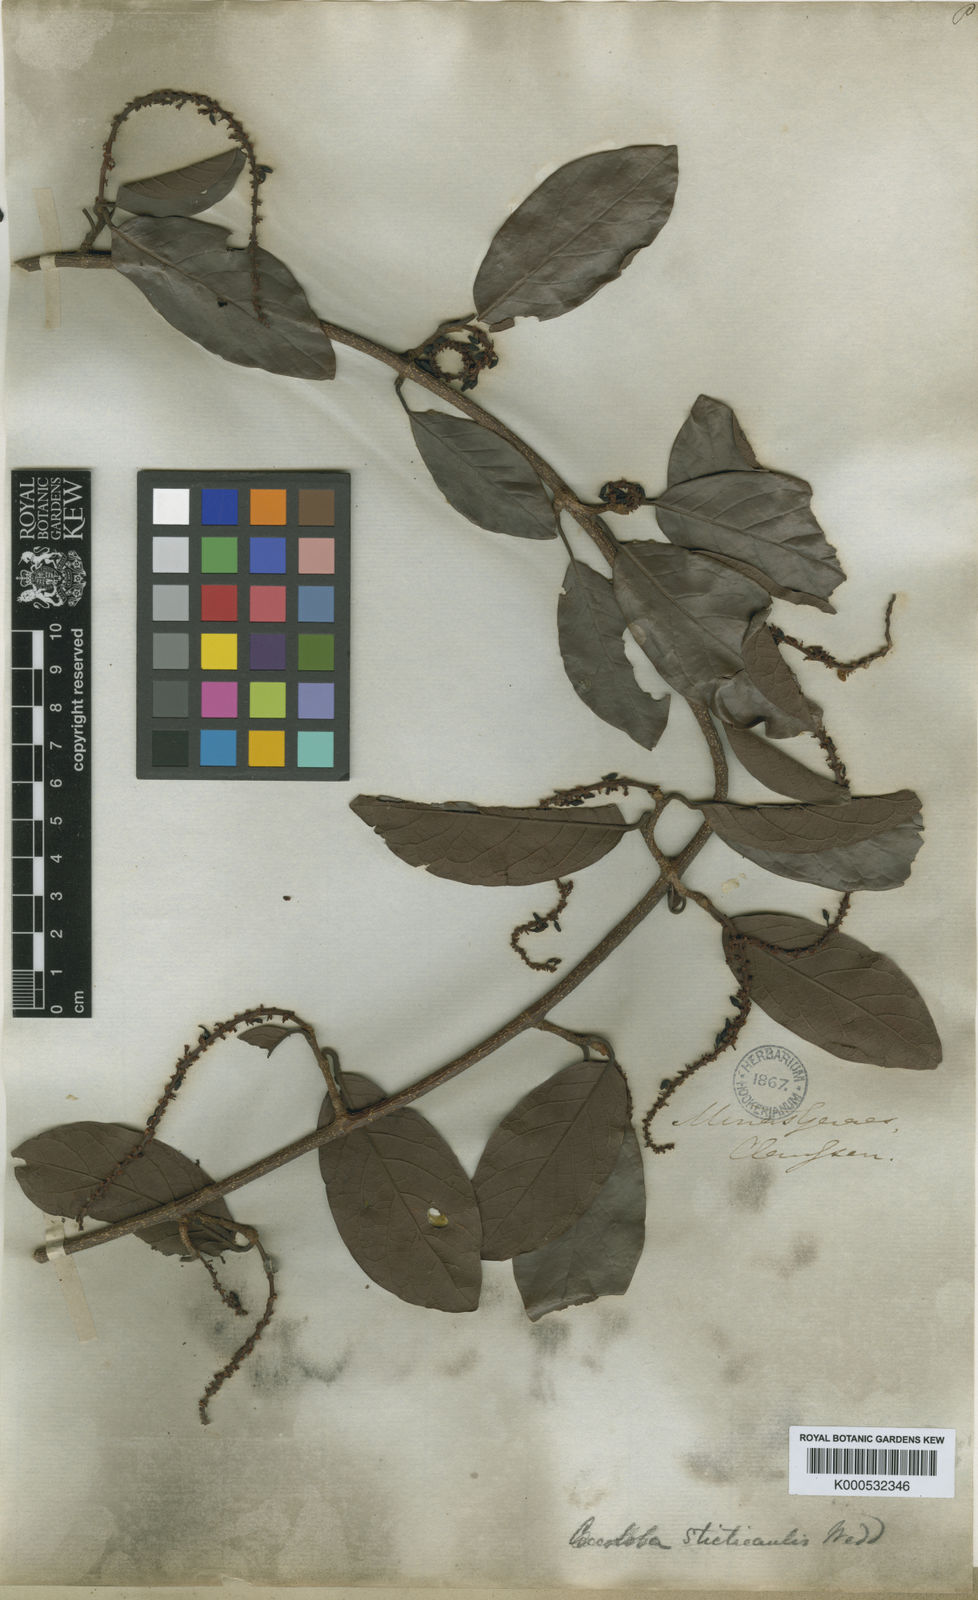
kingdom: Plantae
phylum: Tracheophyta
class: Magnoliopsida
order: Caryophyllales
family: Polygonaceae
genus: Coccoloba
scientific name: Coccoloba scandens
